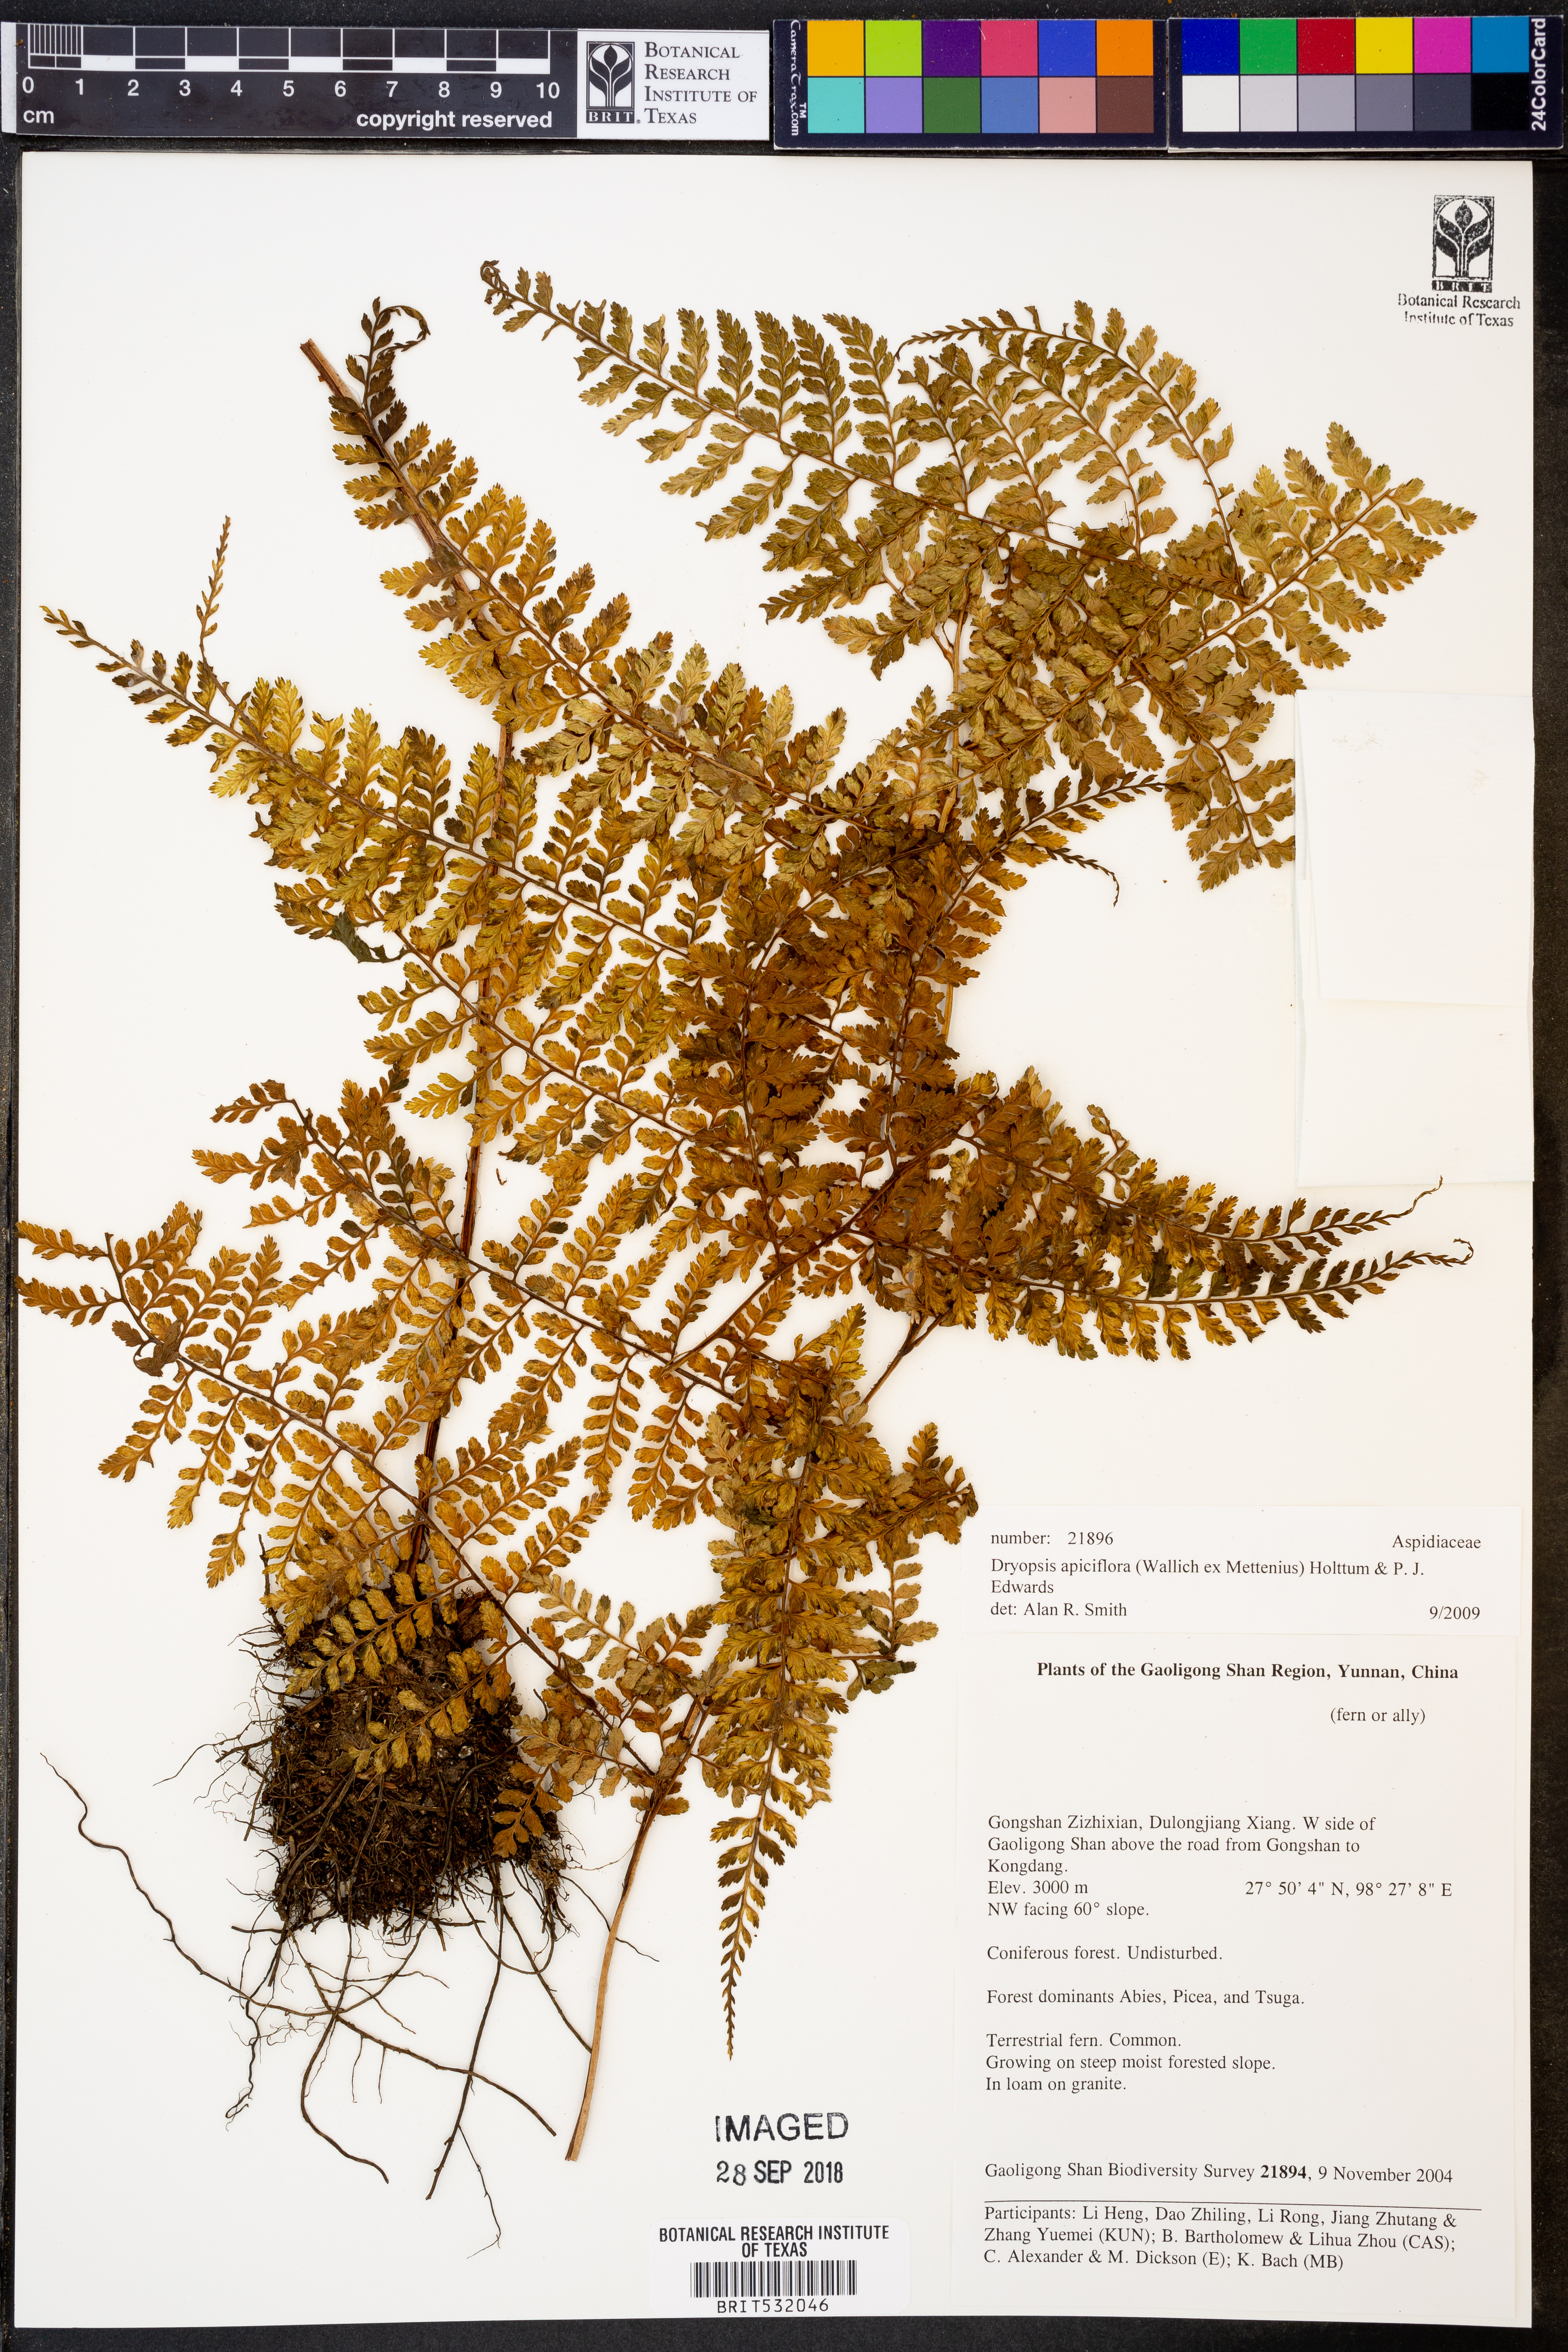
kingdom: Plantae
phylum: Tracheophyta
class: Polypodiopsida
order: Polypodiales
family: Athyriaceae
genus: Athyrium
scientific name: Athyrium
